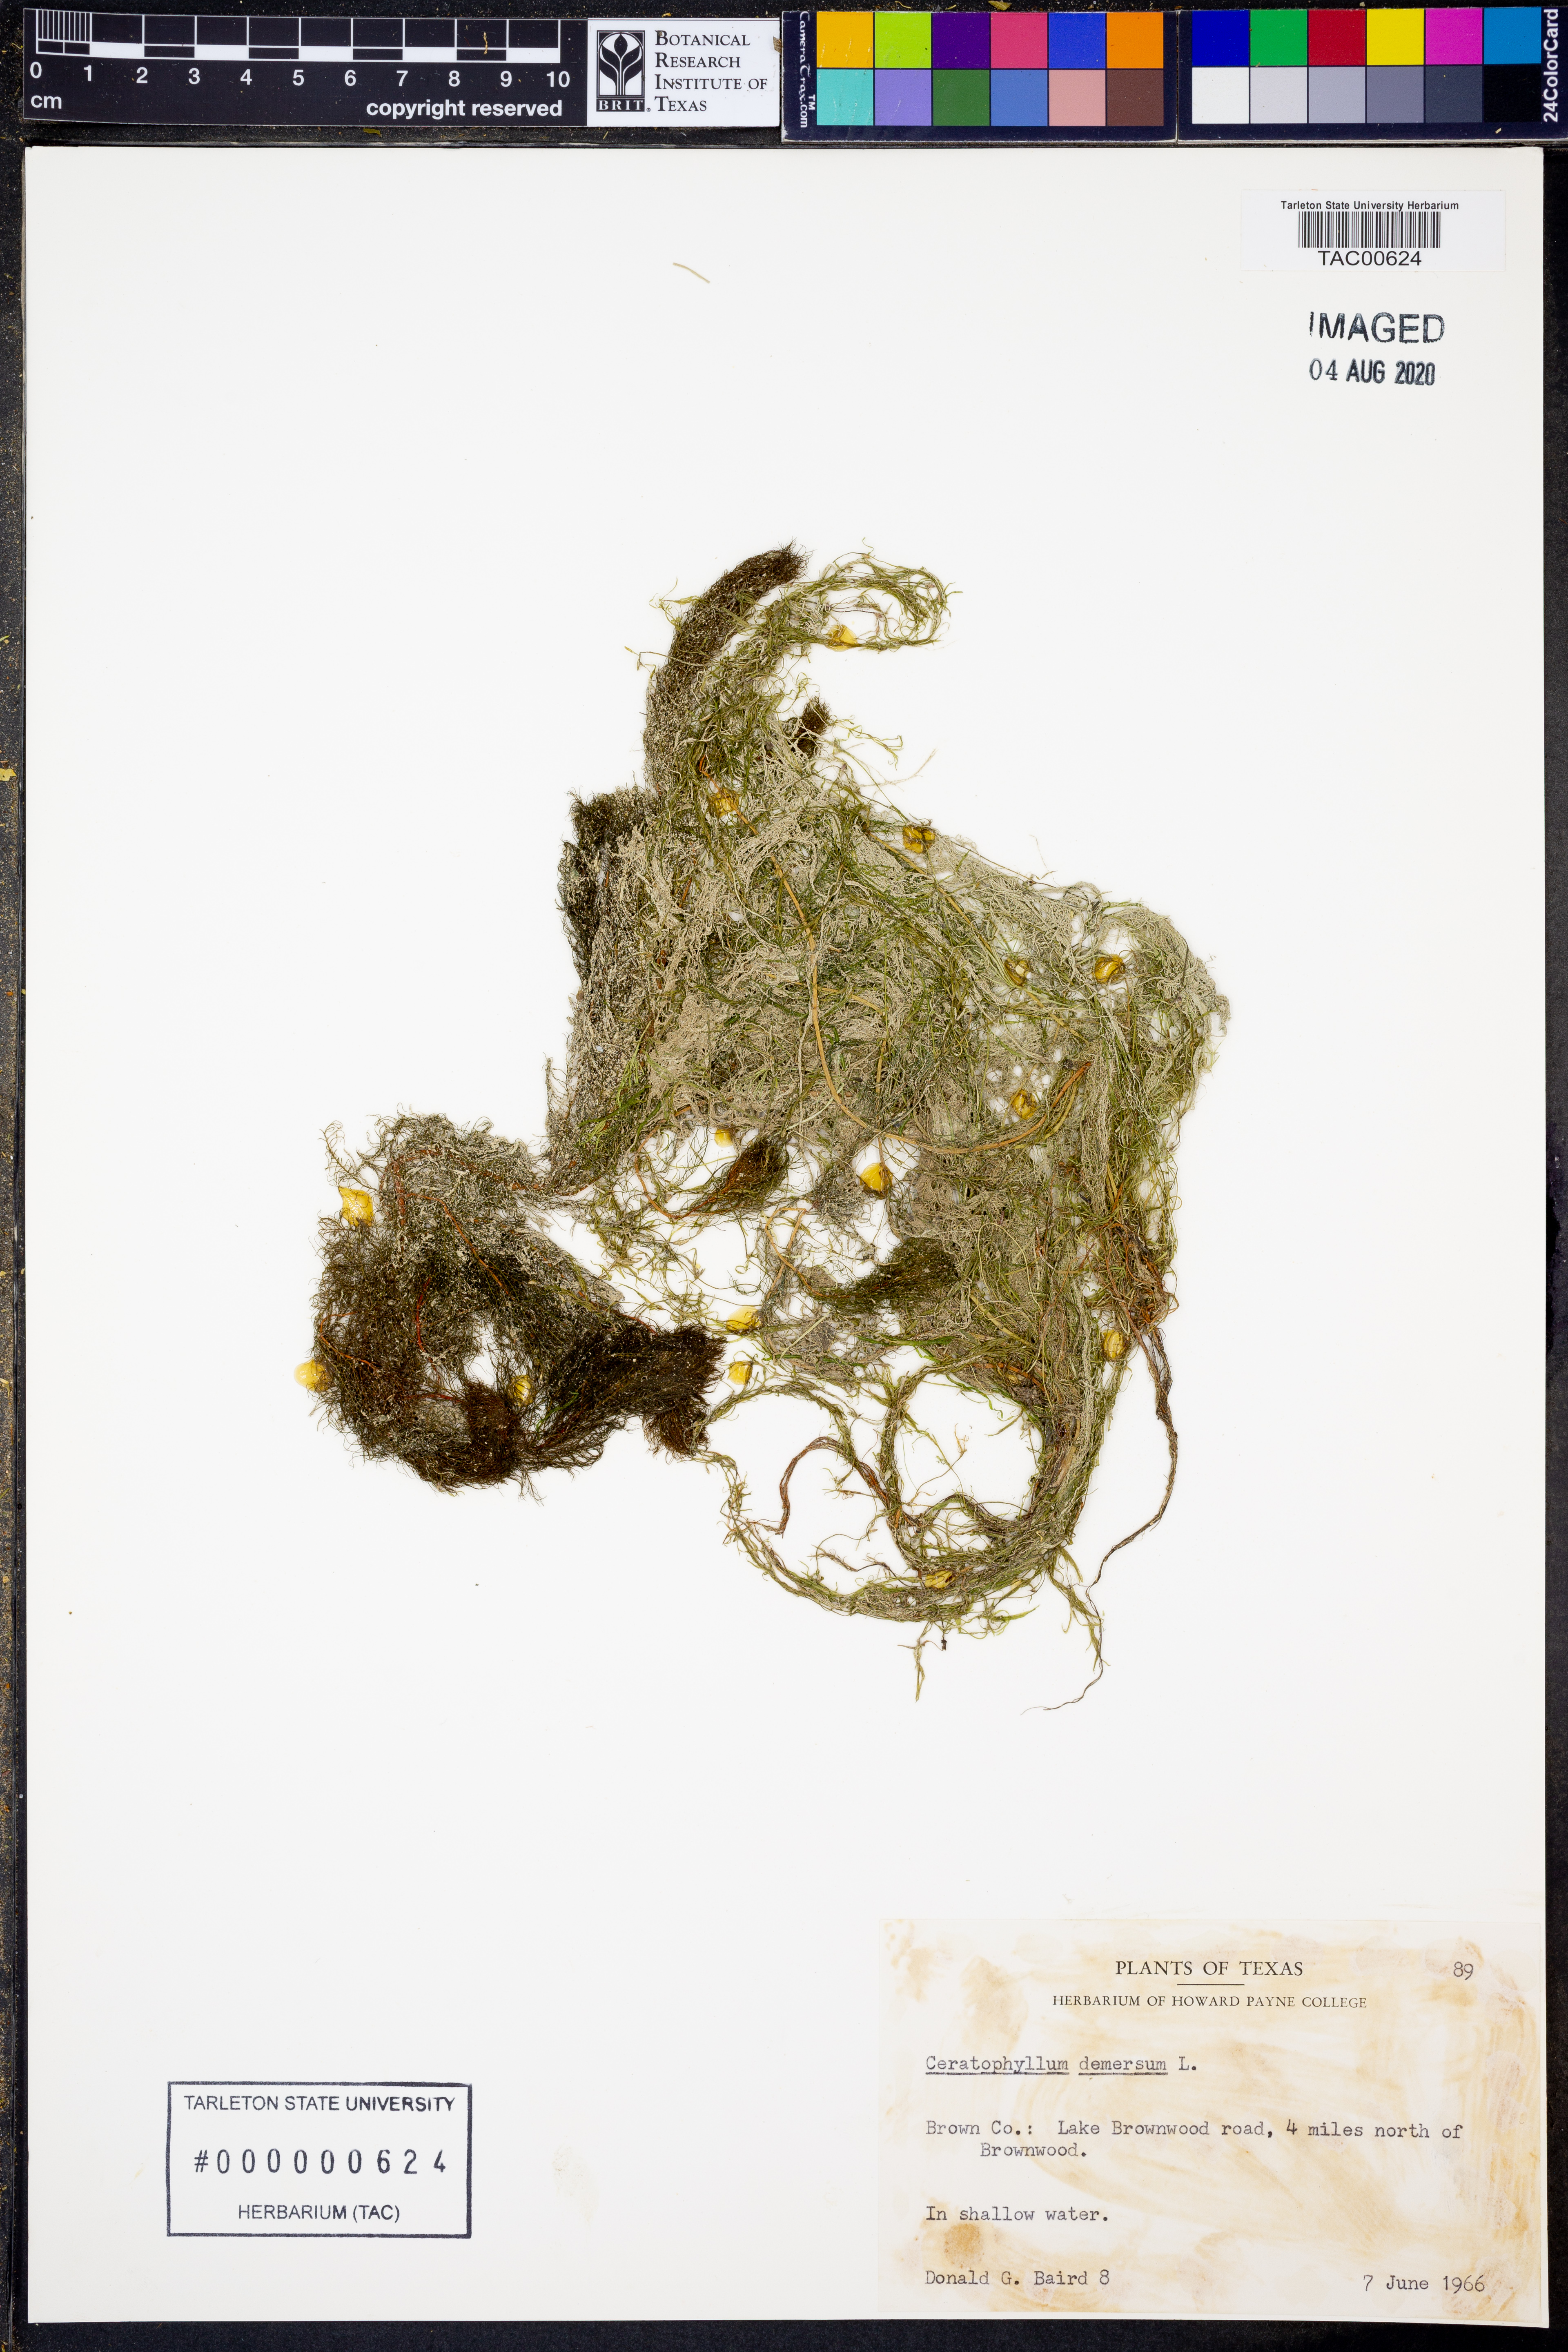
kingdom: Plantae
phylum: Tracheophyta
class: Magnoliopsida
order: Ceratophyllales
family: Ceratophyllaceae
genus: Ceratophyllum
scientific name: Ceratophyllum demersum
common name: Rigid hornwort
